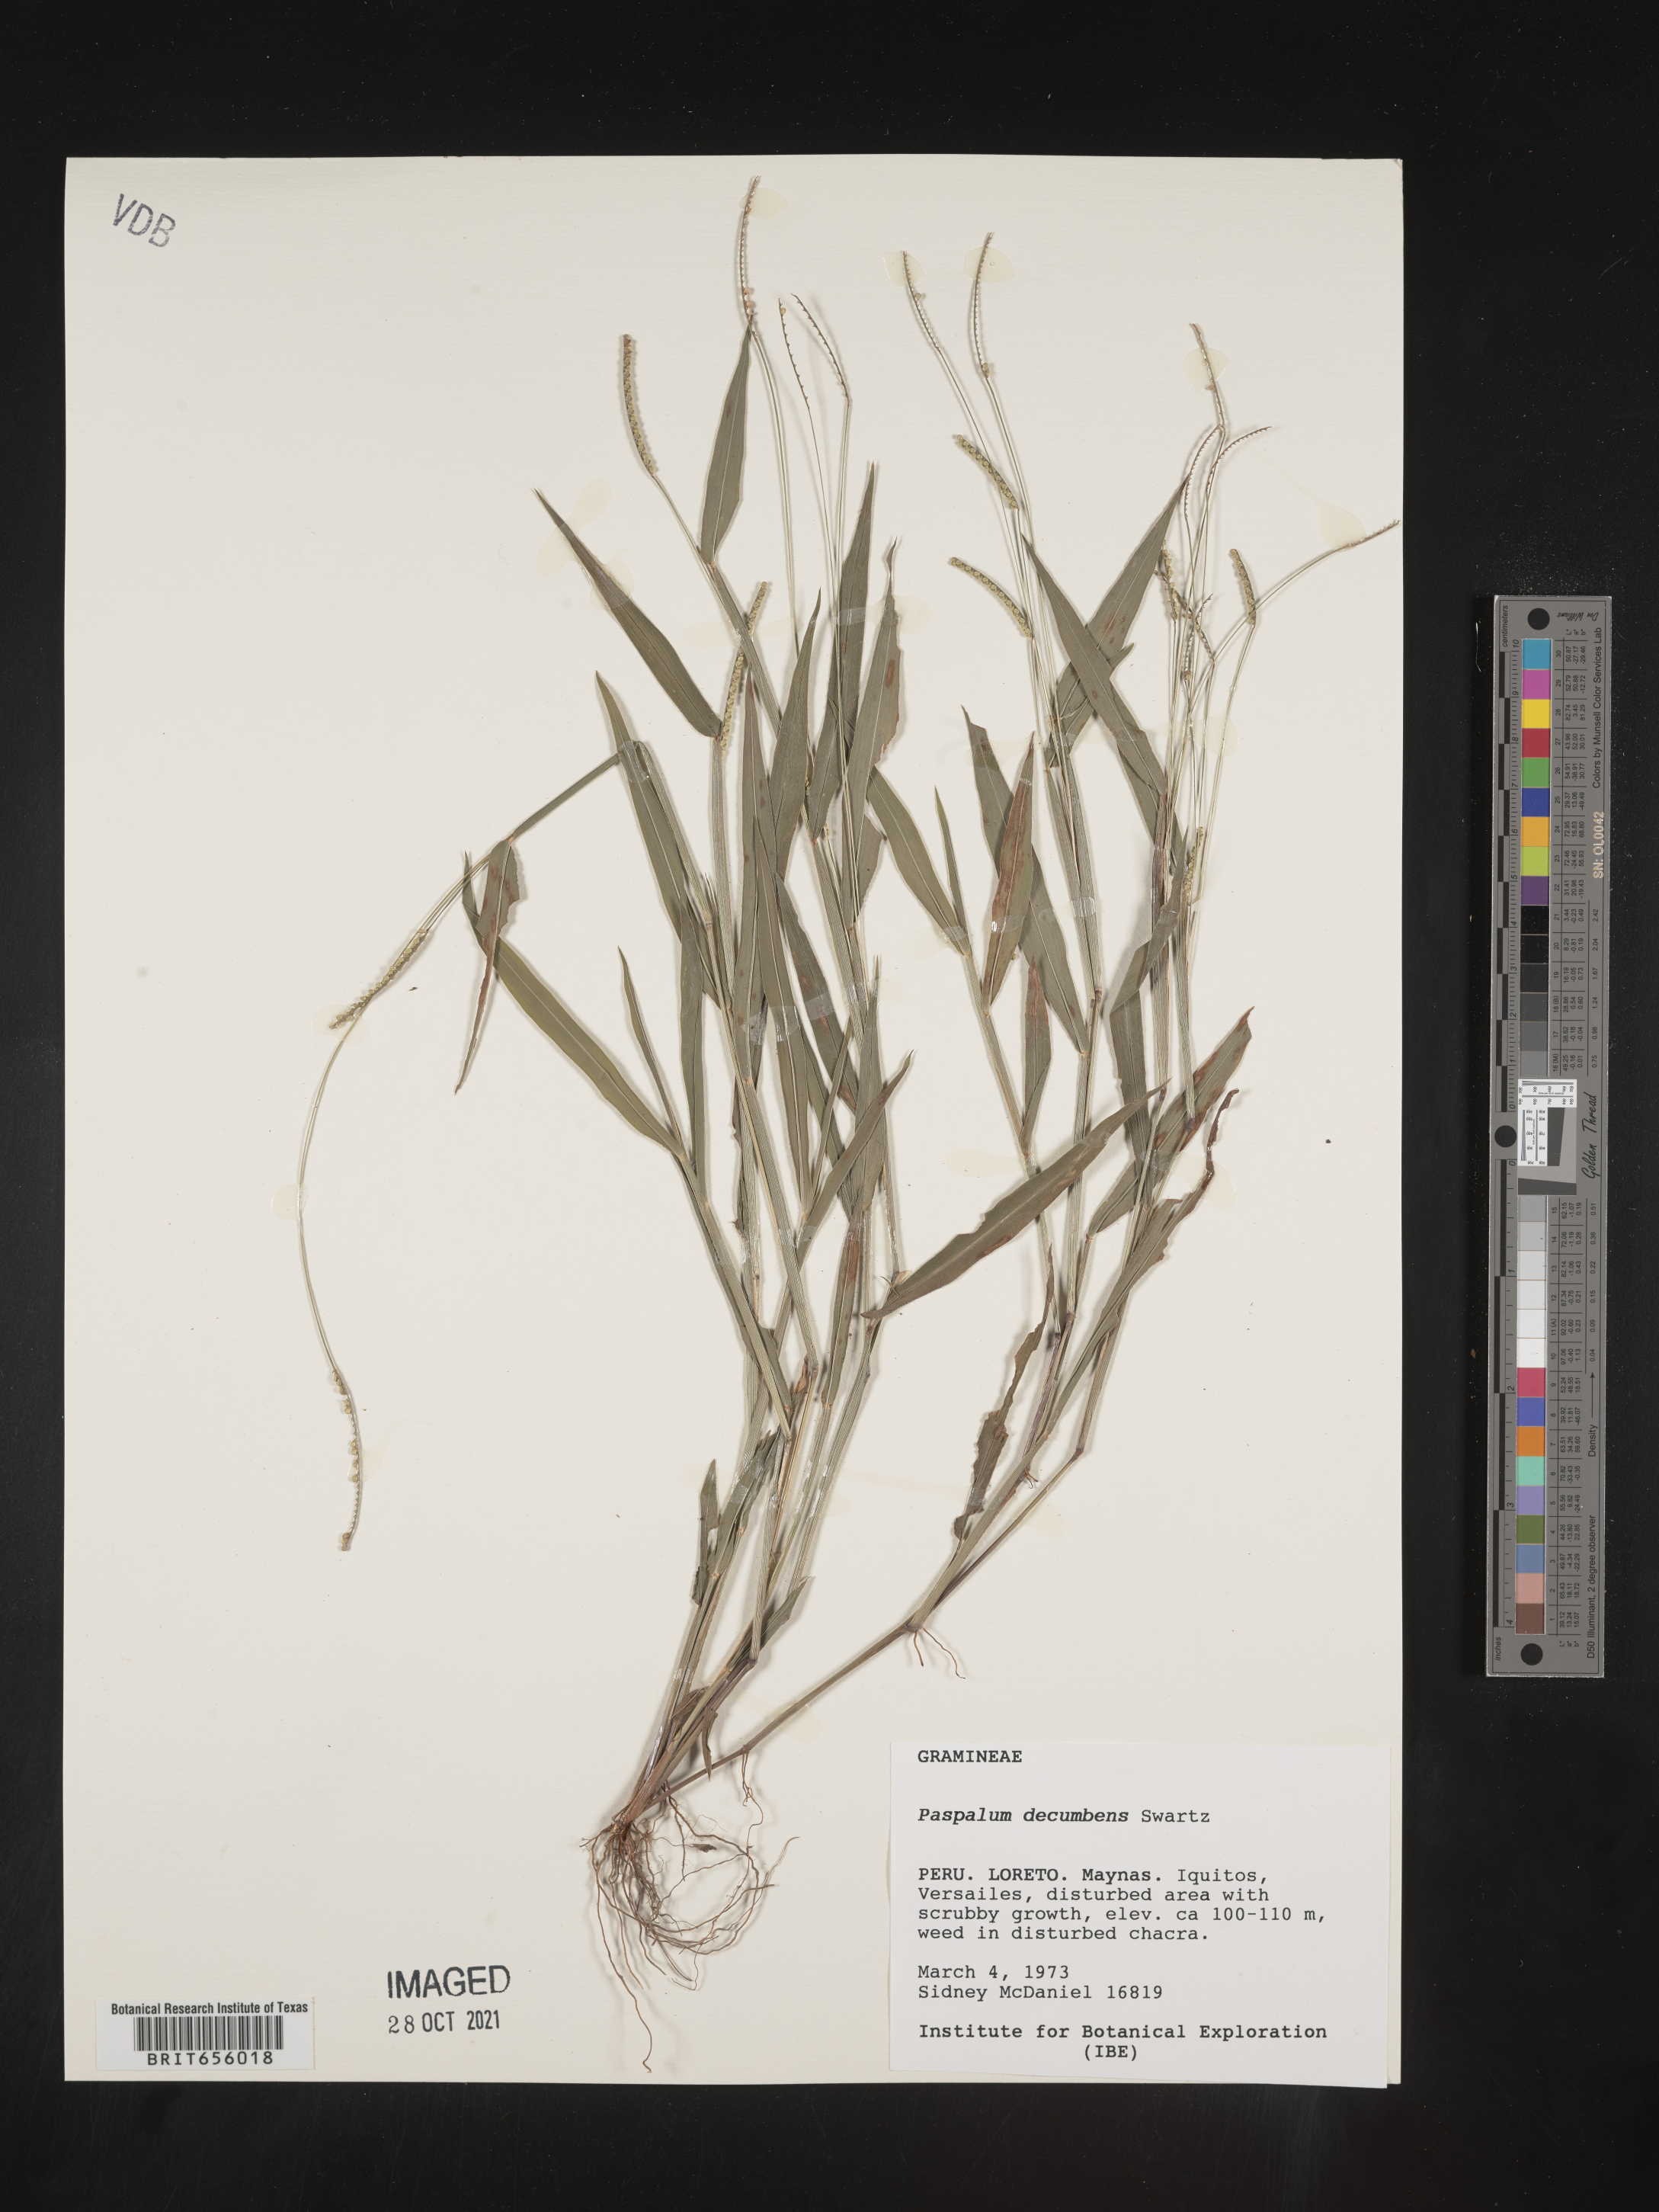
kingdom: Plantae
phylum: Tracheophyta
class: Liliopsida
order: Poales
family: Poaceae
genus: Paspalum
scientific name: Paspalum
